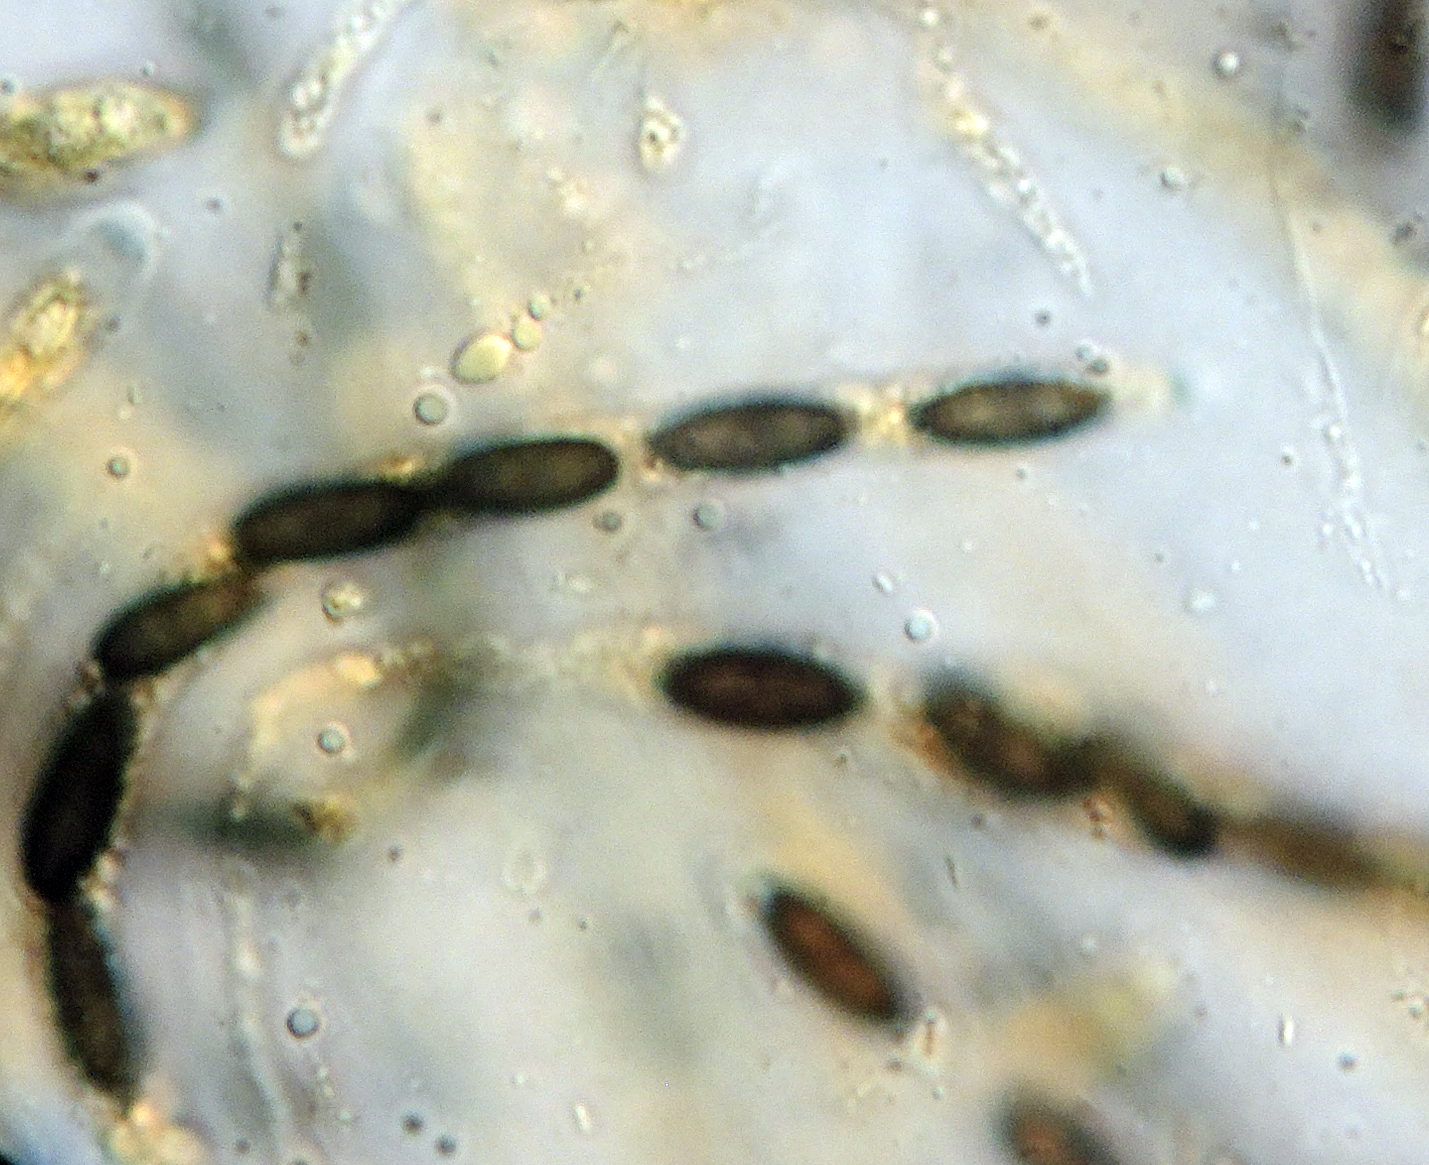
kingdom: Fungi
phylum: Ascomycota
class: Sordariomycetes
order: Xylariales
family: Lopadostomataceae
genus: Lopadostoma
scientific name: Lopadostoma fagi
